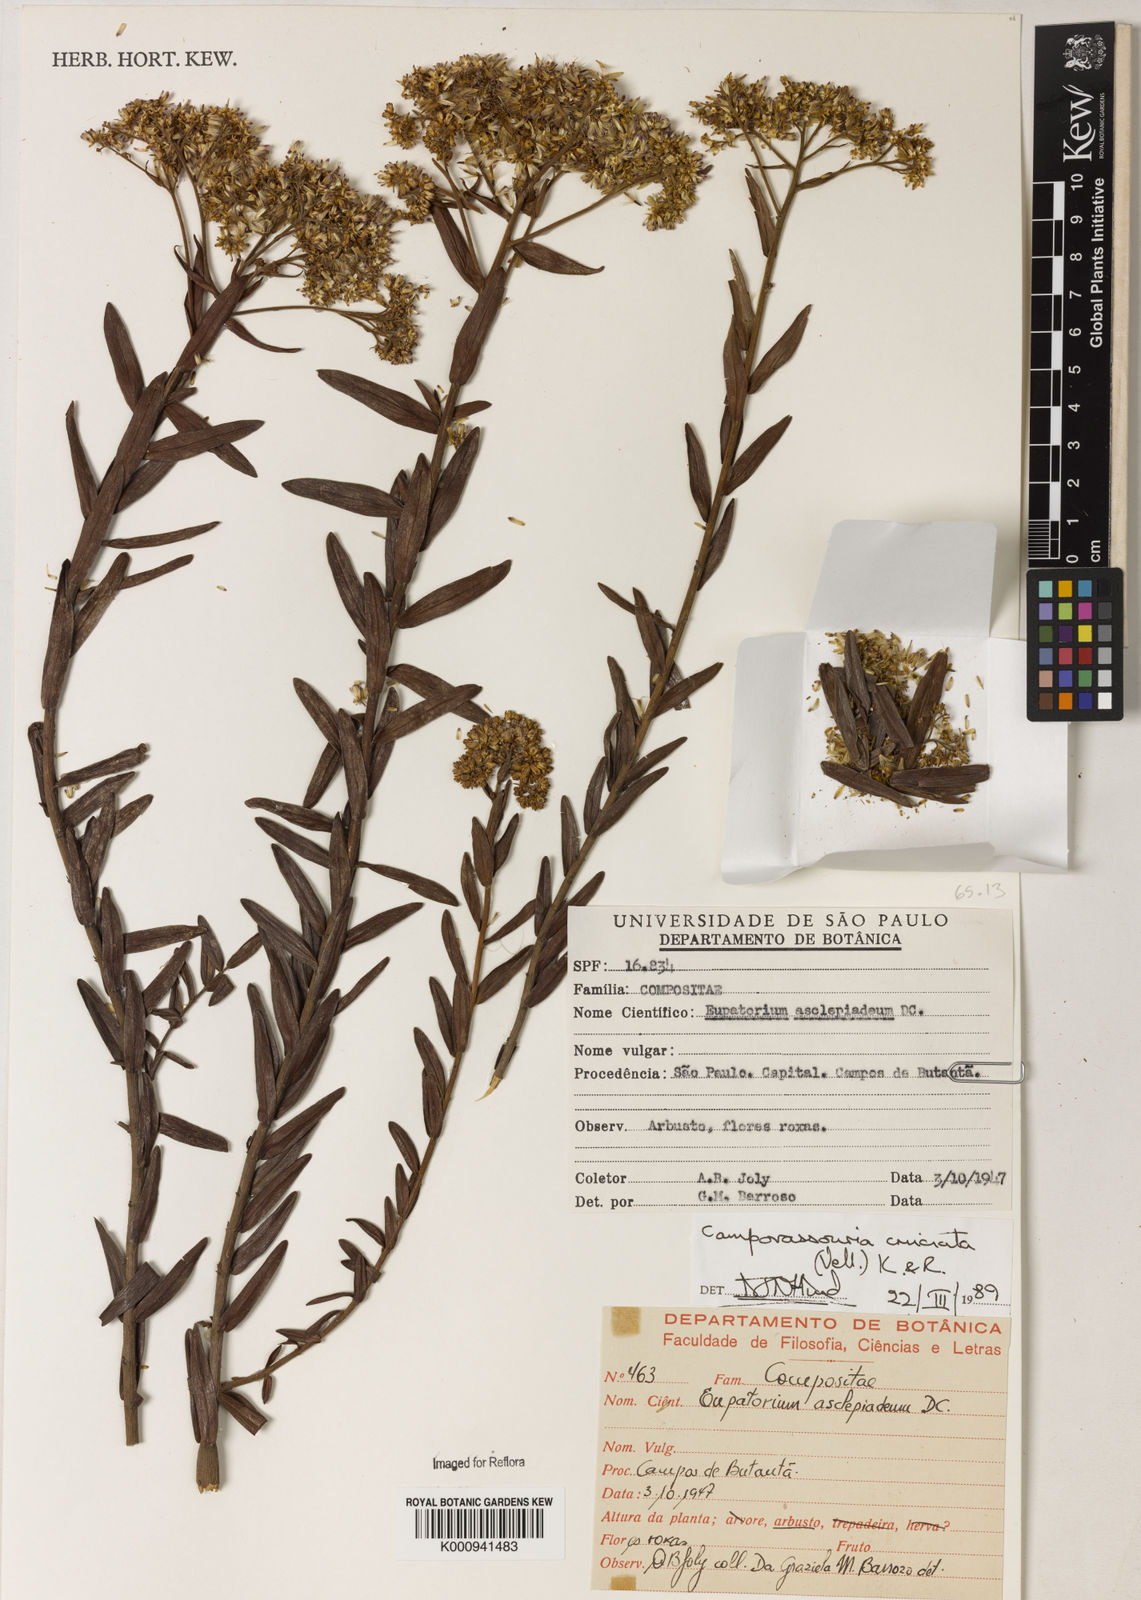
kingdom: Plantae
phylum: Tracheophyta
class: Magnoliopsida
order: Asterales
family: Asteraceae
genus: Campovassouria
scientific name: Campovassouria cruciata
